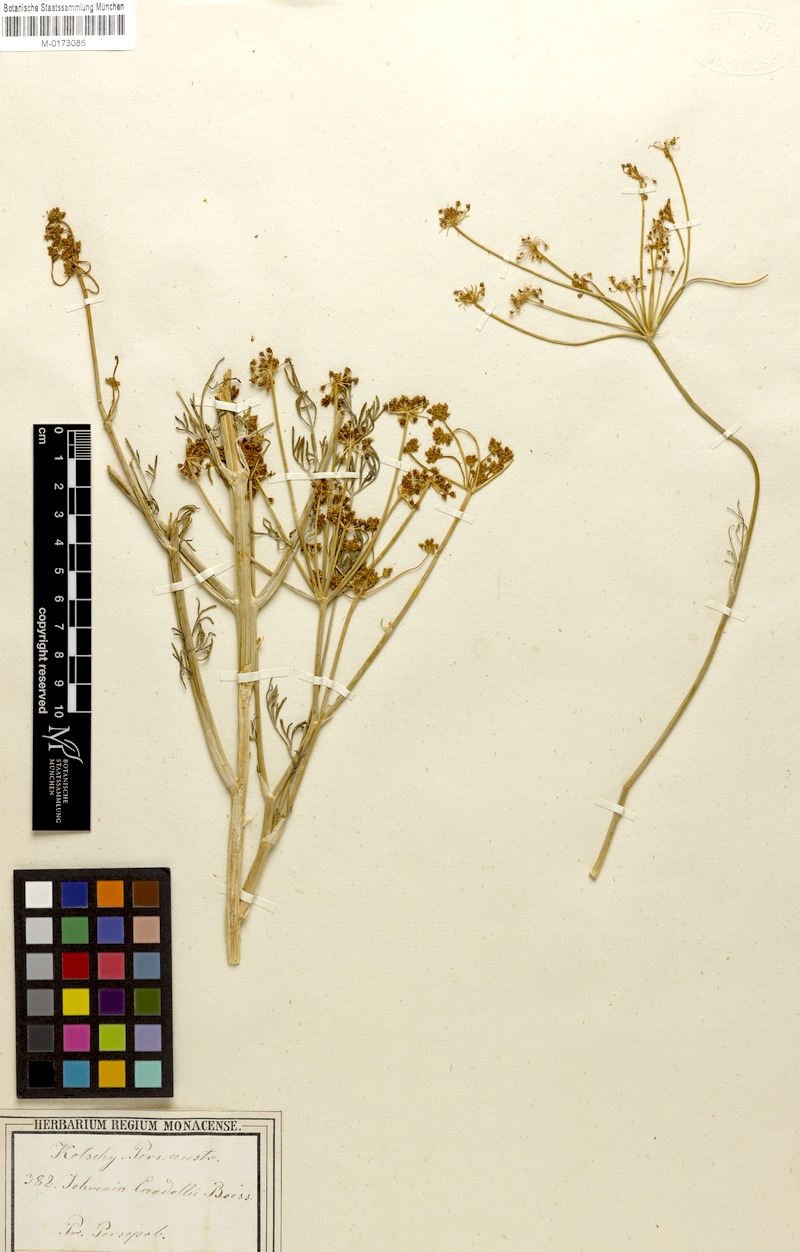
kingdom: Plantae
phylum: Tracheophyta
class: Magnoliopsida
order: Apiales
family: Apiaceae
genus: Dichoropetalum
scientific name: Dichoropetalum paucijugum
